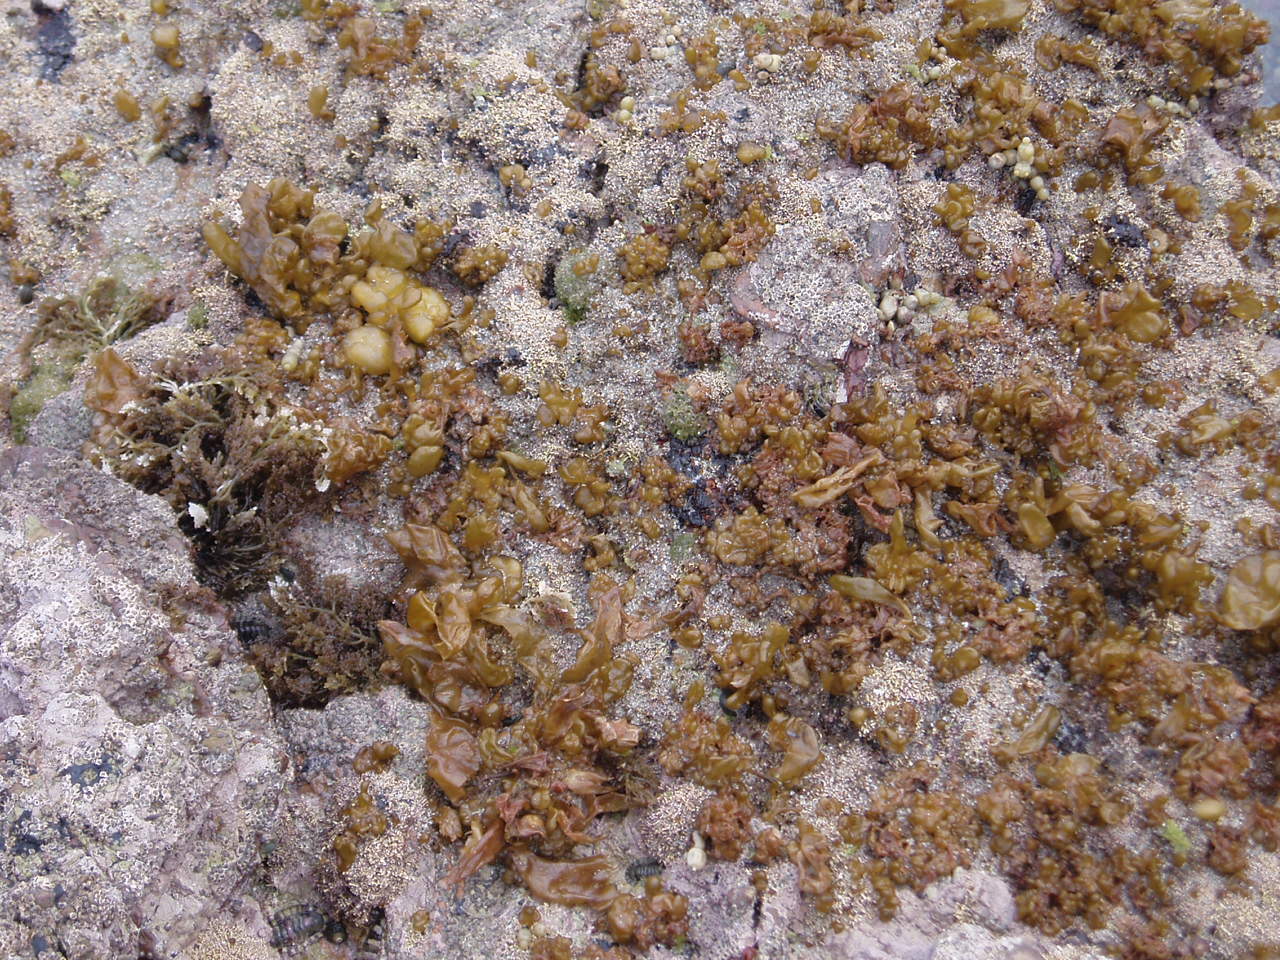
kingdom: Chromista
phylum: Ochrophyta
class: Phaeophyceae
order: Scytosiphonales
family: Scytosiphonaceae
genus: Dactylosiphon
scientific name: Dactylosiphon bullosus
